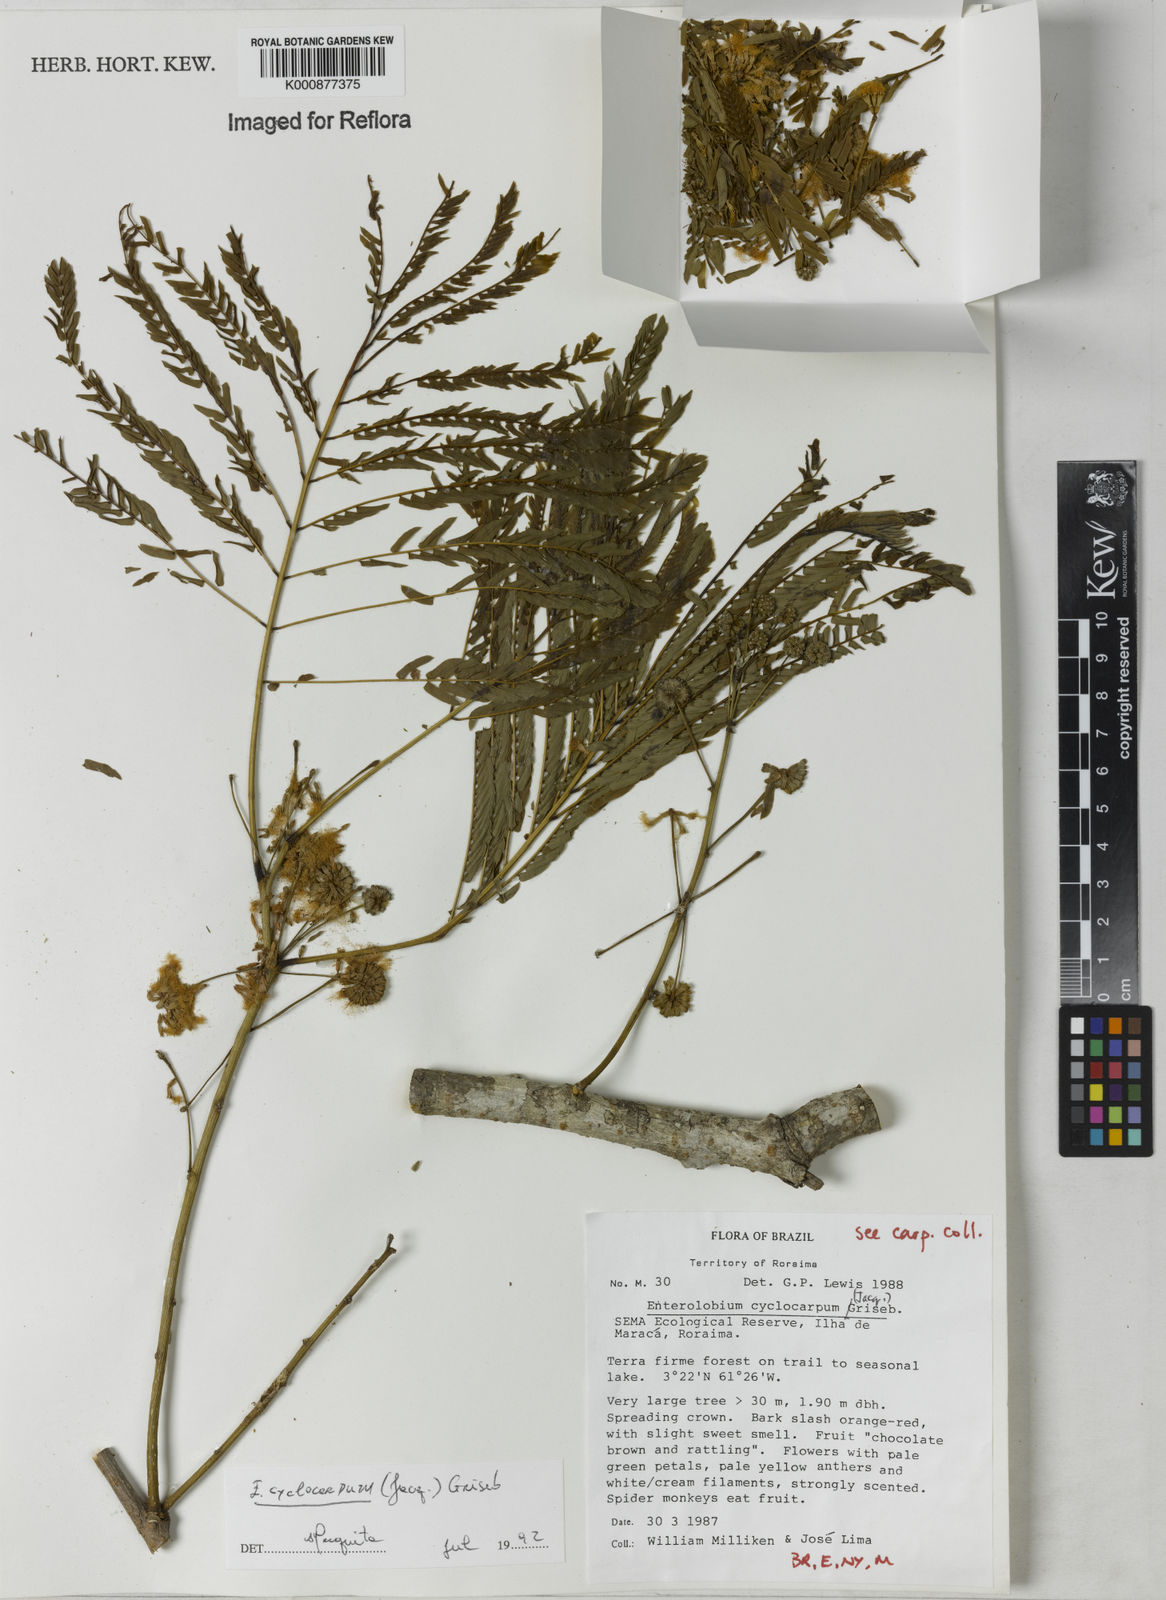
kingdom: Plantae
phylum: Tracheophyta
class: Magnoliopsida
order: Fabales
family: Fabaceae
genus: Enterolobium
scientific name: Enterolobium cyclocarpum
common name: Ear tree
